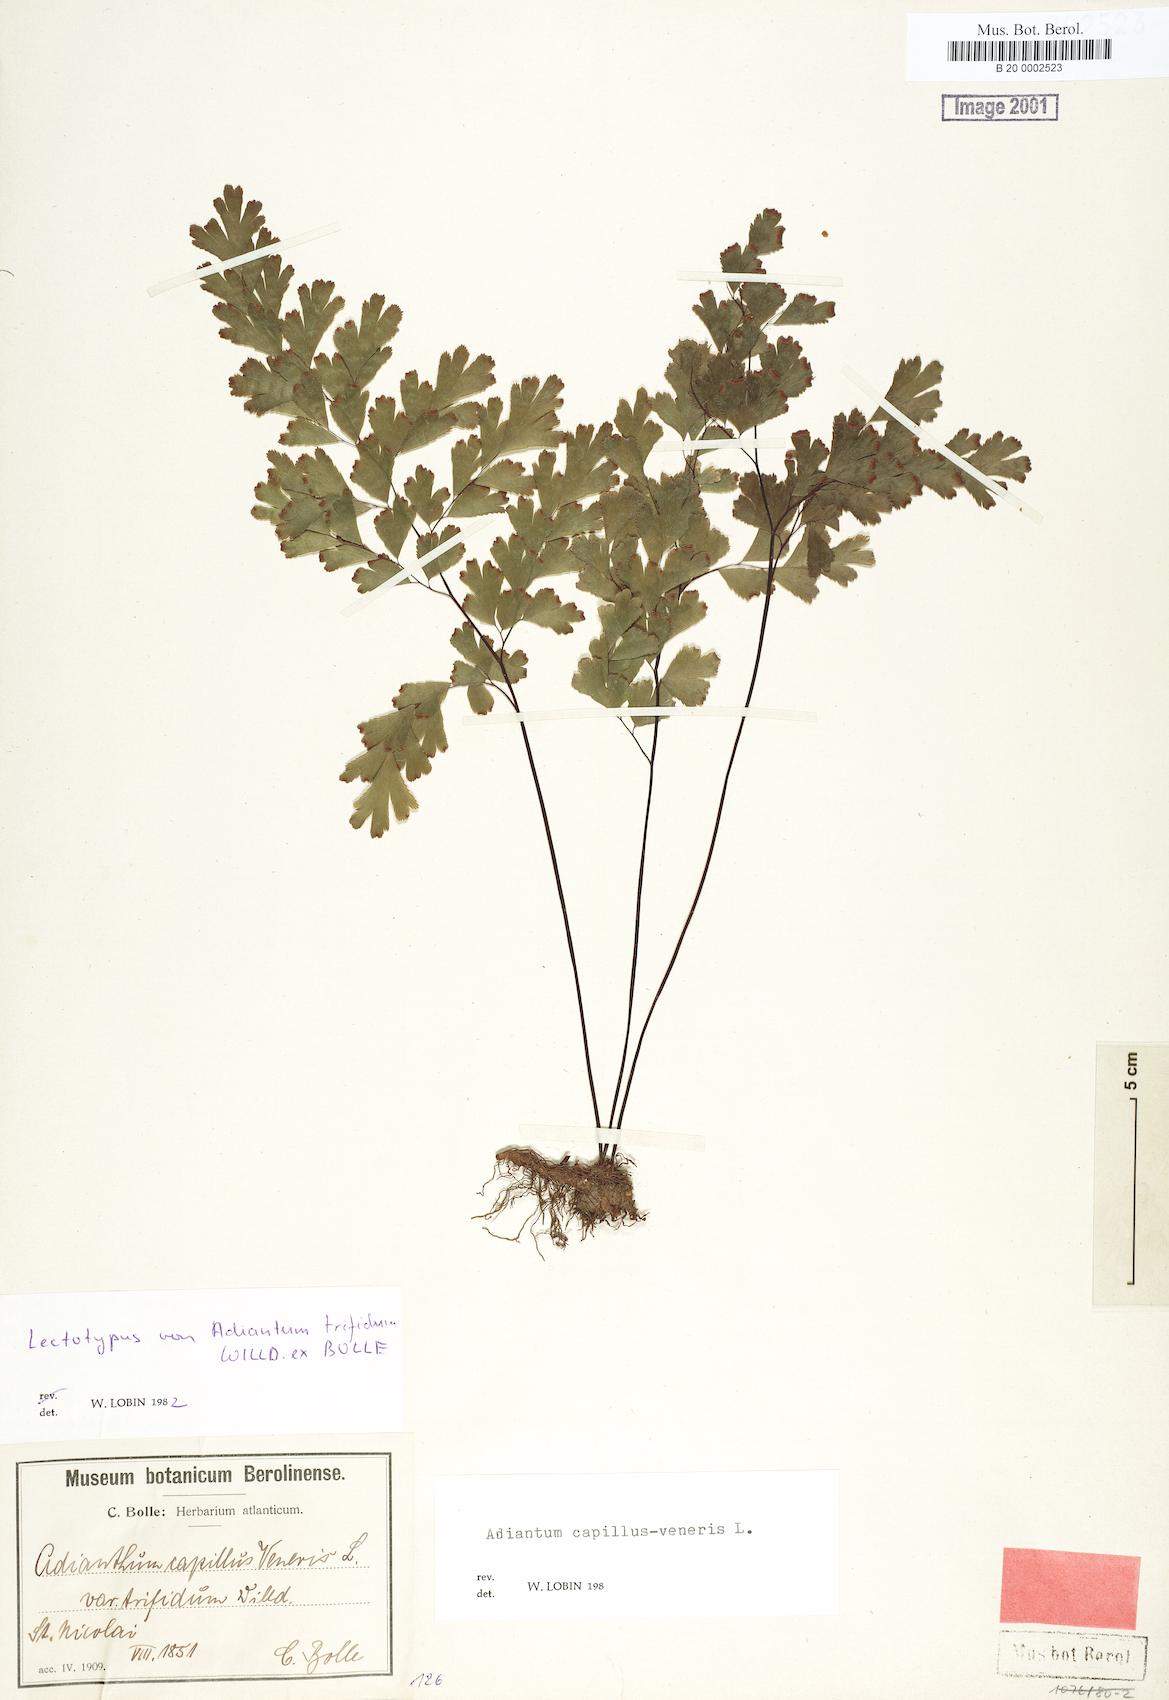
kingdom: Plantae
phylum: Tracheophyta
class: Polypodiopsida
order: Polypodiales
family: Pteridaceae
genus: Adiantum
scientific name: Adiantum capillus-veneris
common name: Maidenhair fern
